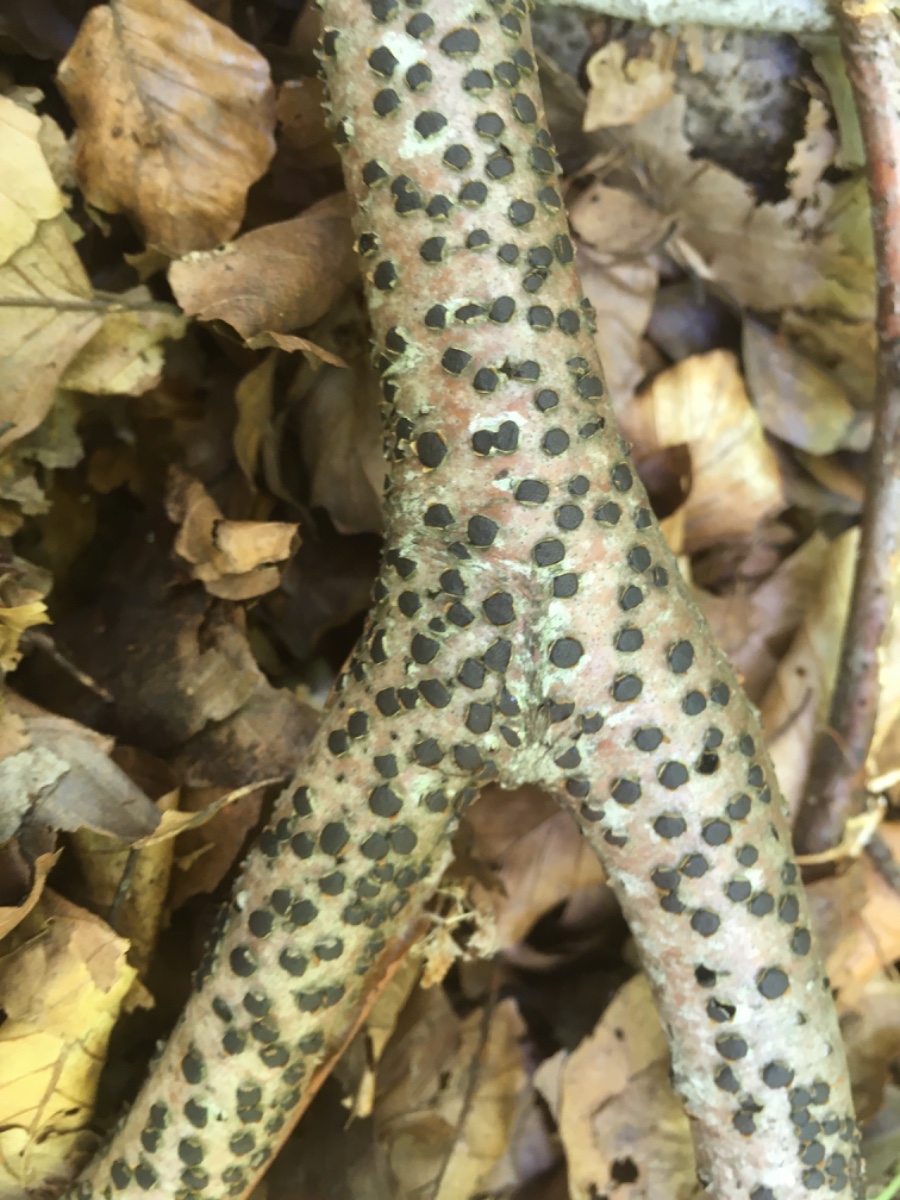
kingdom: Fungi
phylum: Ascomycota
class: Sordariomycetes
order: Xylariales
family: Diatrypaceae
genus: Diatrype
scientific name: Diatrype disciformis
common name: kant-kulskorpe
